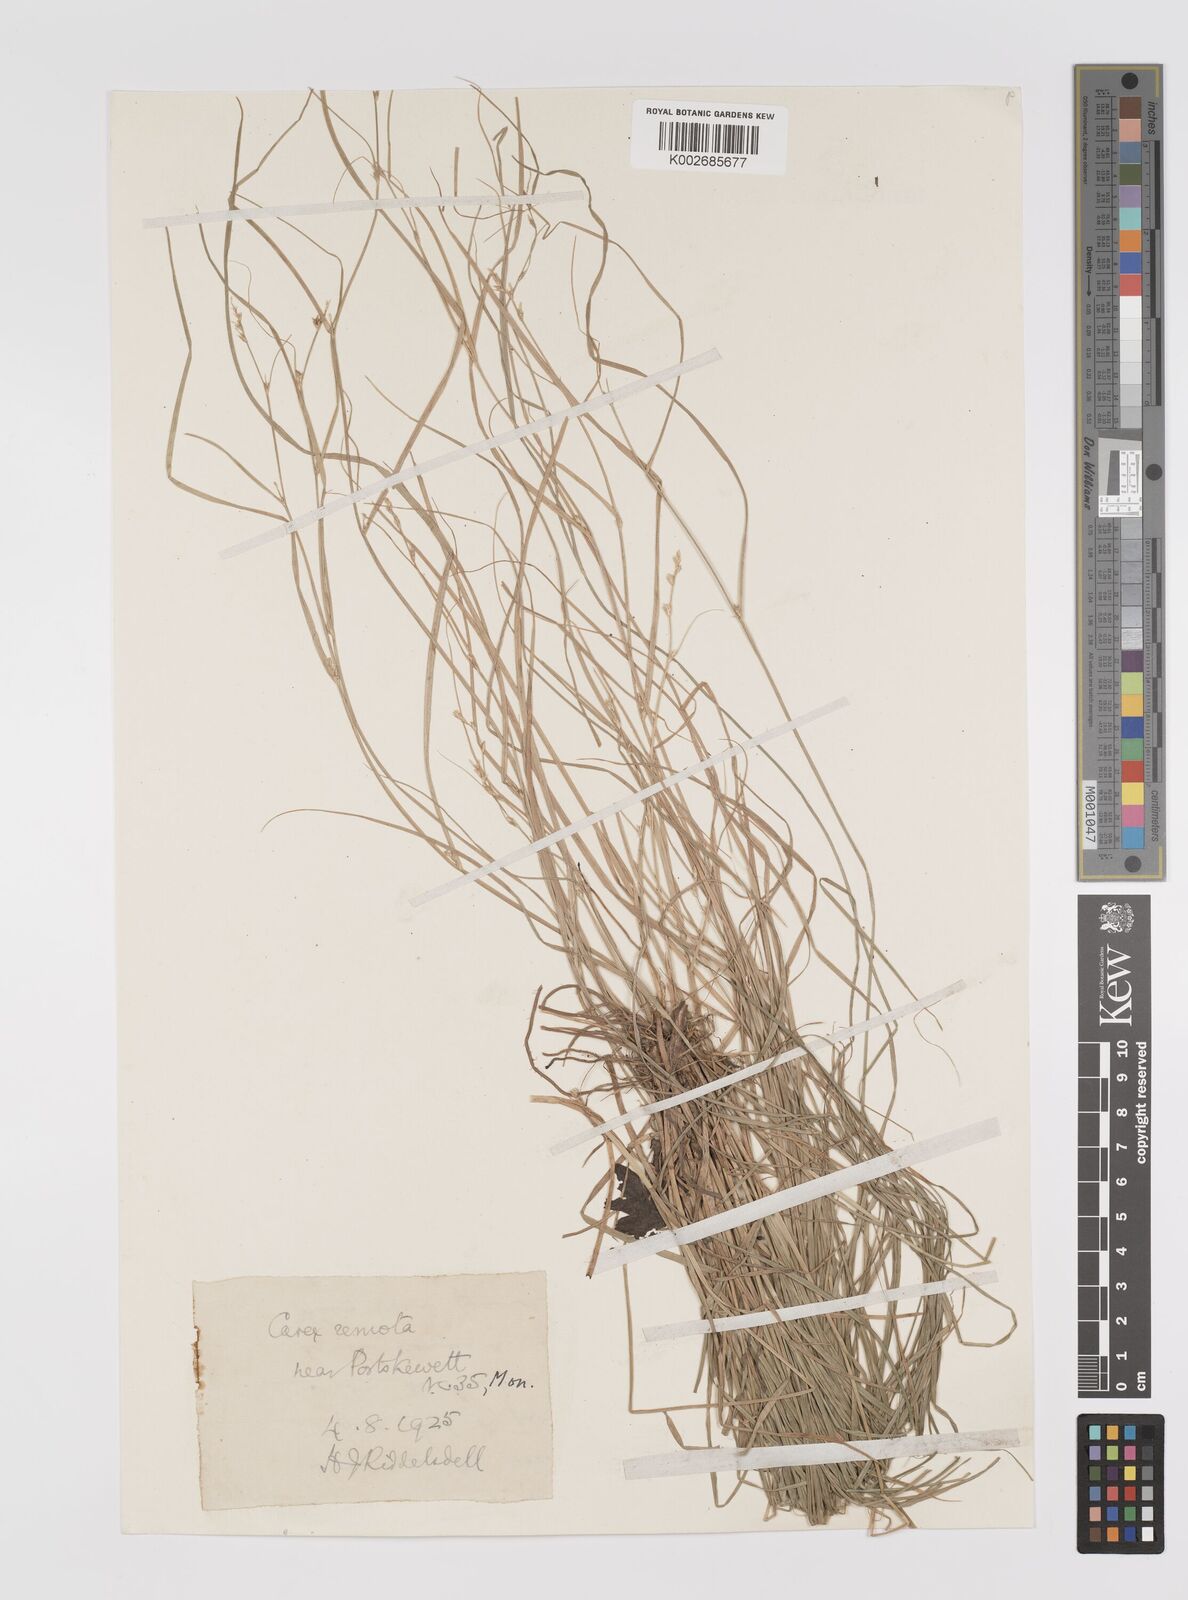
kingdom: Plantae
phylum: Tracheophyta
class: Liliopsida
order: Poales
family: Cyperaceae
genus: Carex
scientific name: Carex remota
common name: Remote sedge
